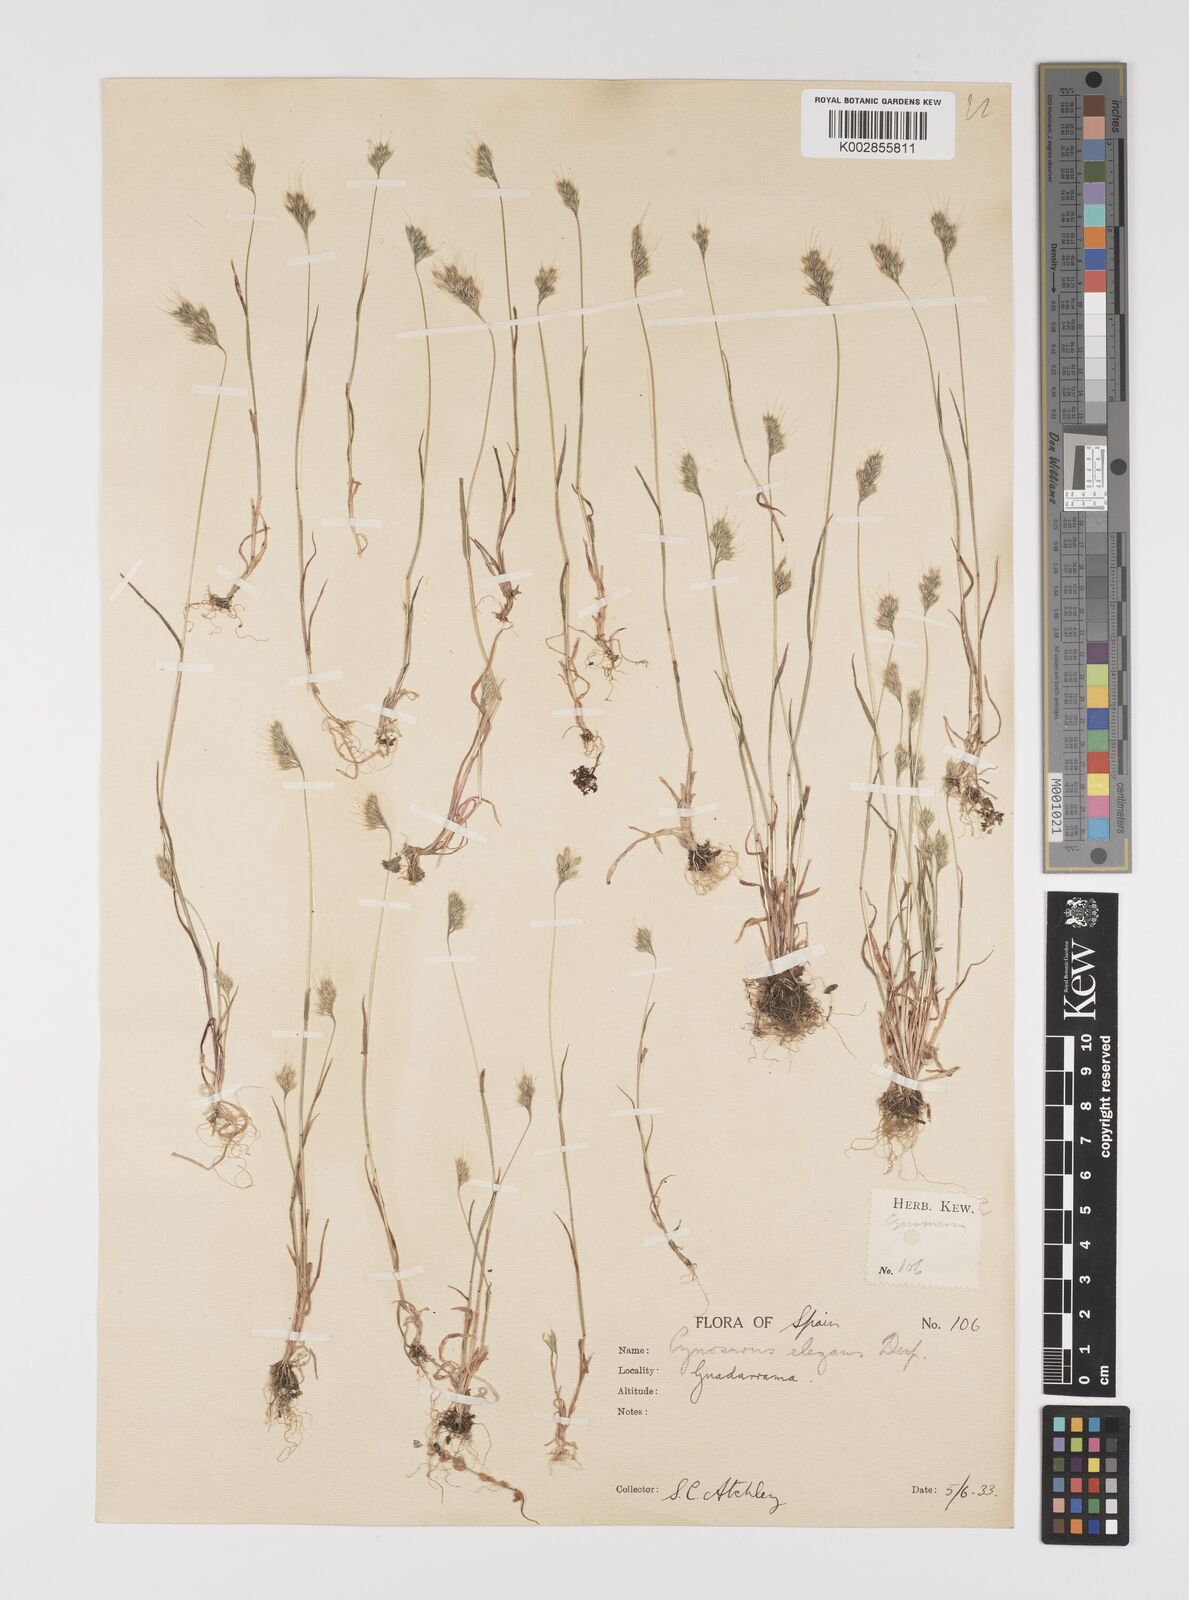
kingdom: Plantae
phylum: Tracheophyta
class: Liliopsida
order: Poales
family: Poaceae
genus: Cynosurus
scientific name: Cynosurus elegans
